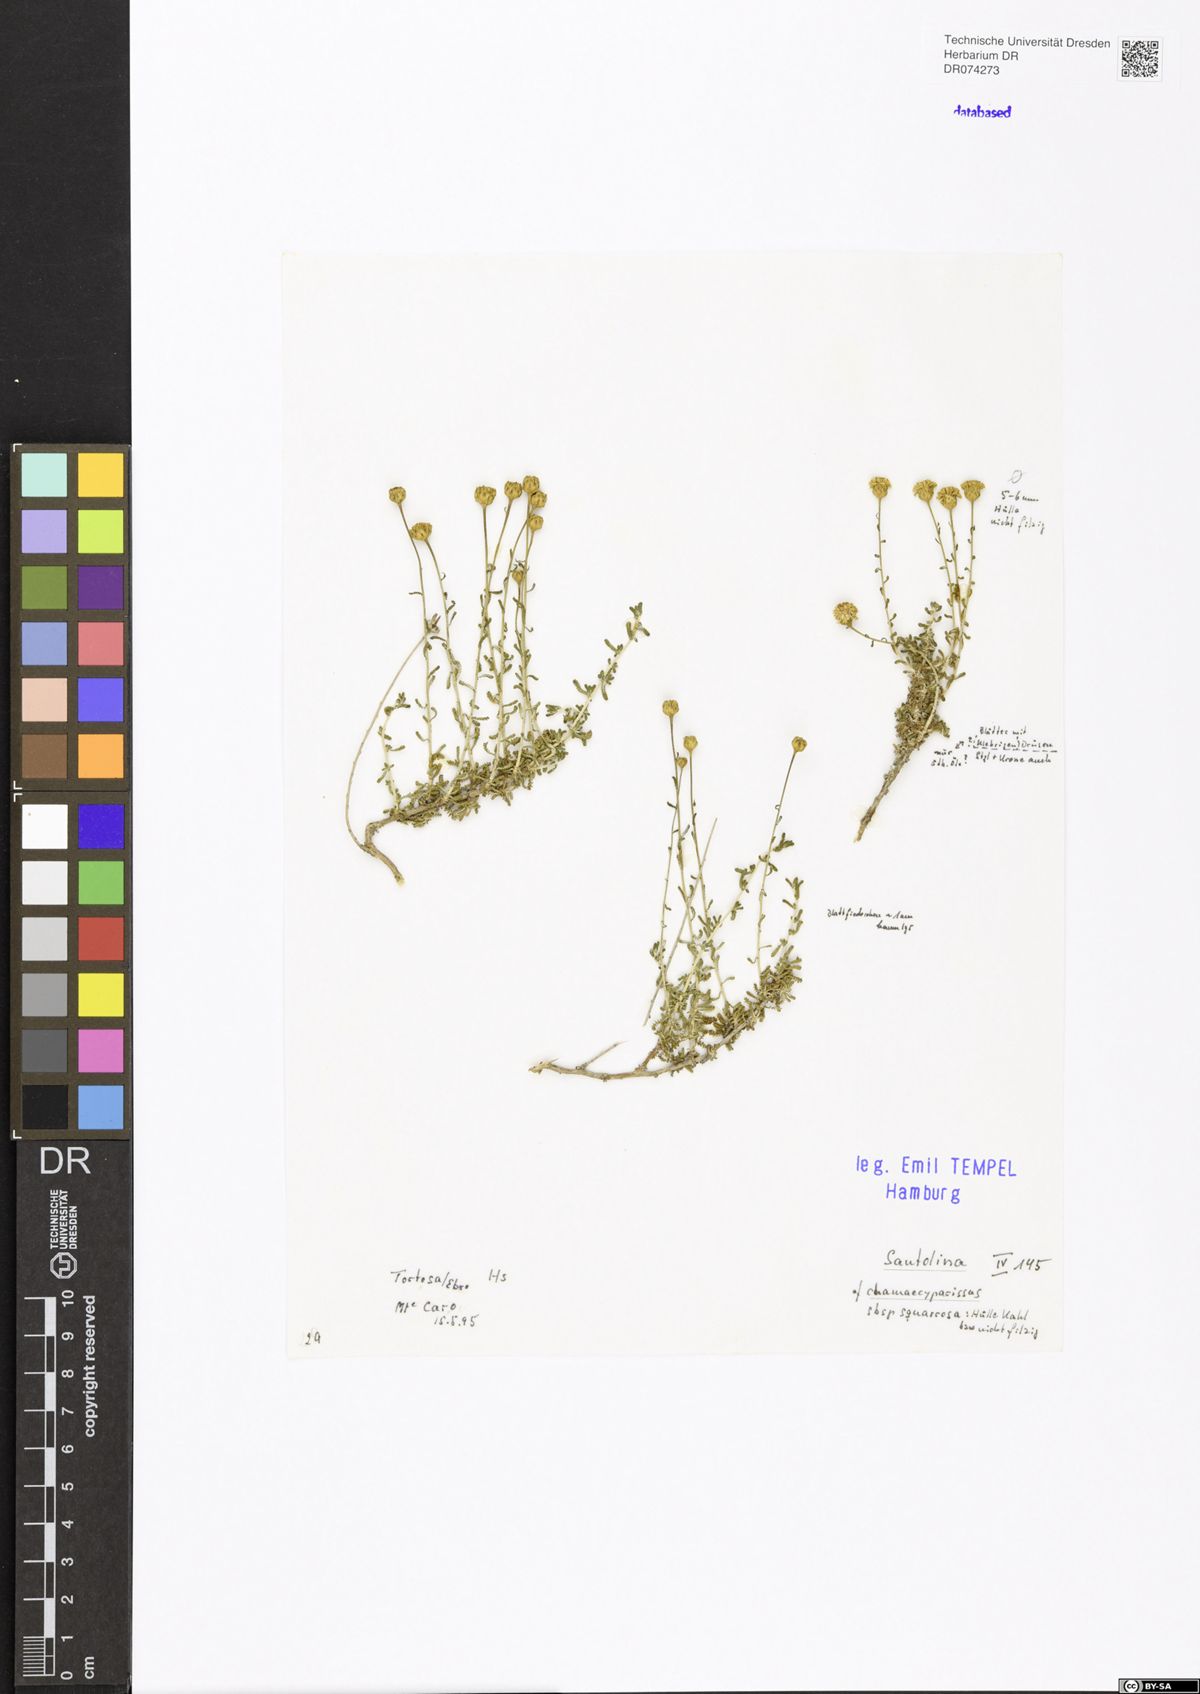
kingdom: Plantae
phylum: Tracheophyta
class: Magnoliopsida
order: Asterales
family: Asteraceae
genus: Santolina
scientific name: Santolina chamaecyparissus
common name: Lavender-cotton
